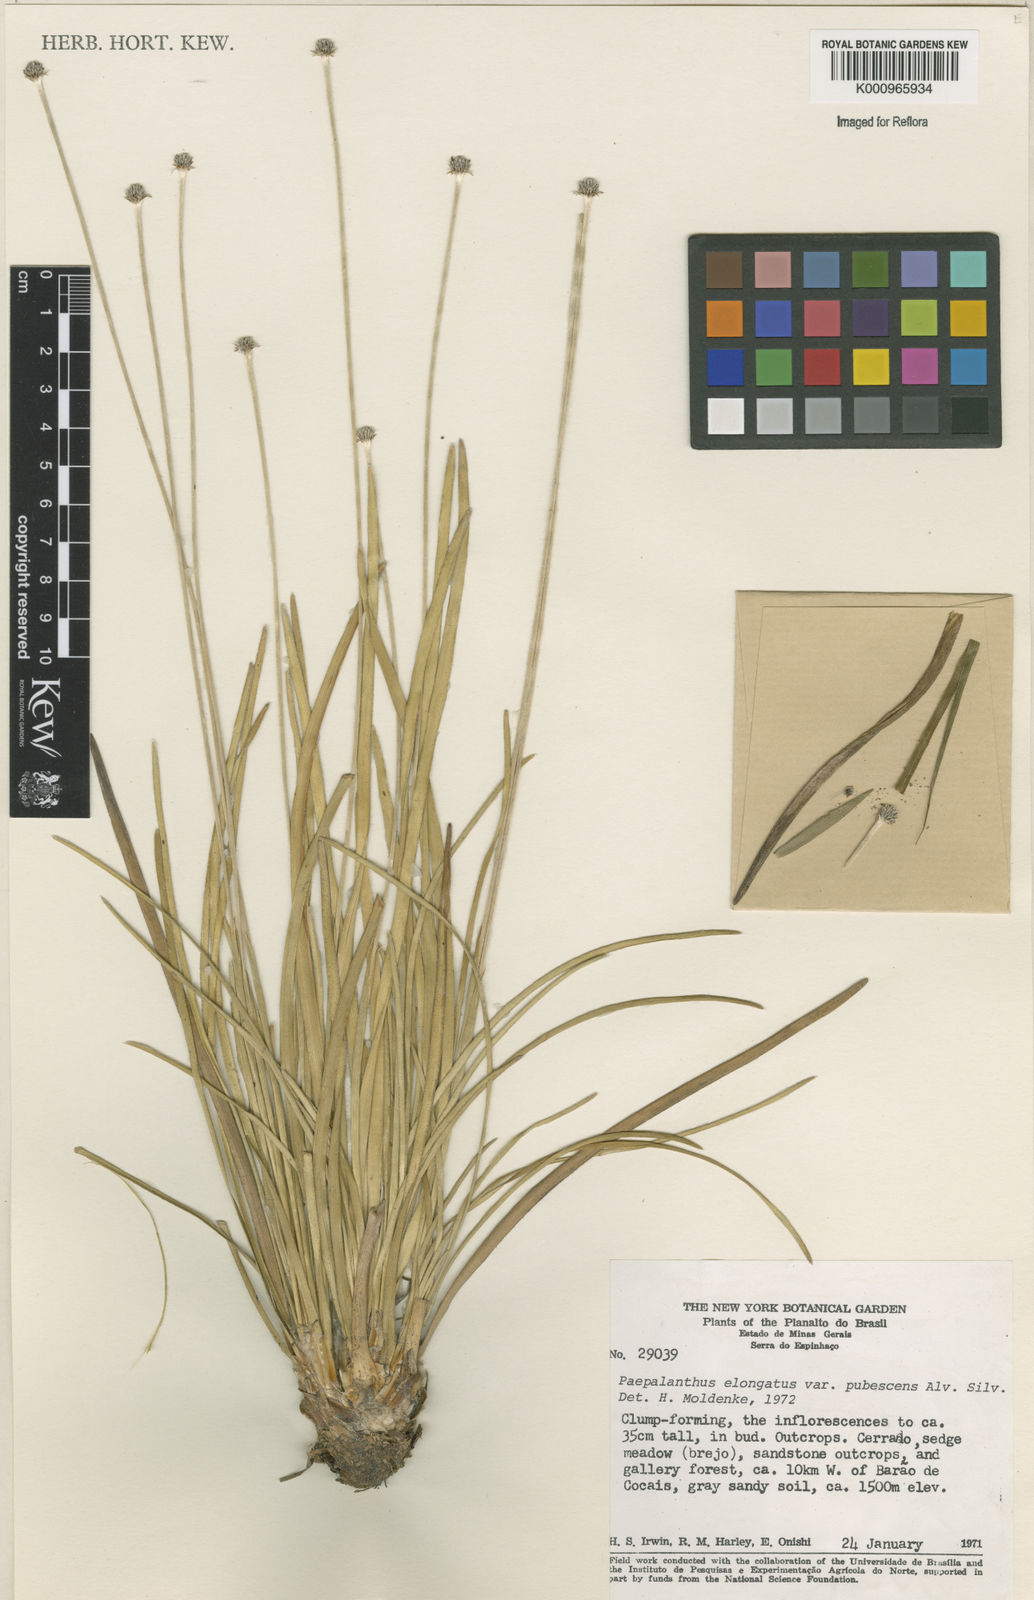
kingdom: Plantae
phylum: Tracheophyta
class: Liliopsida
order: Poales
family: Eriocaulaceae
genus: Paepalanthus
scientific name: Paepalanthus
